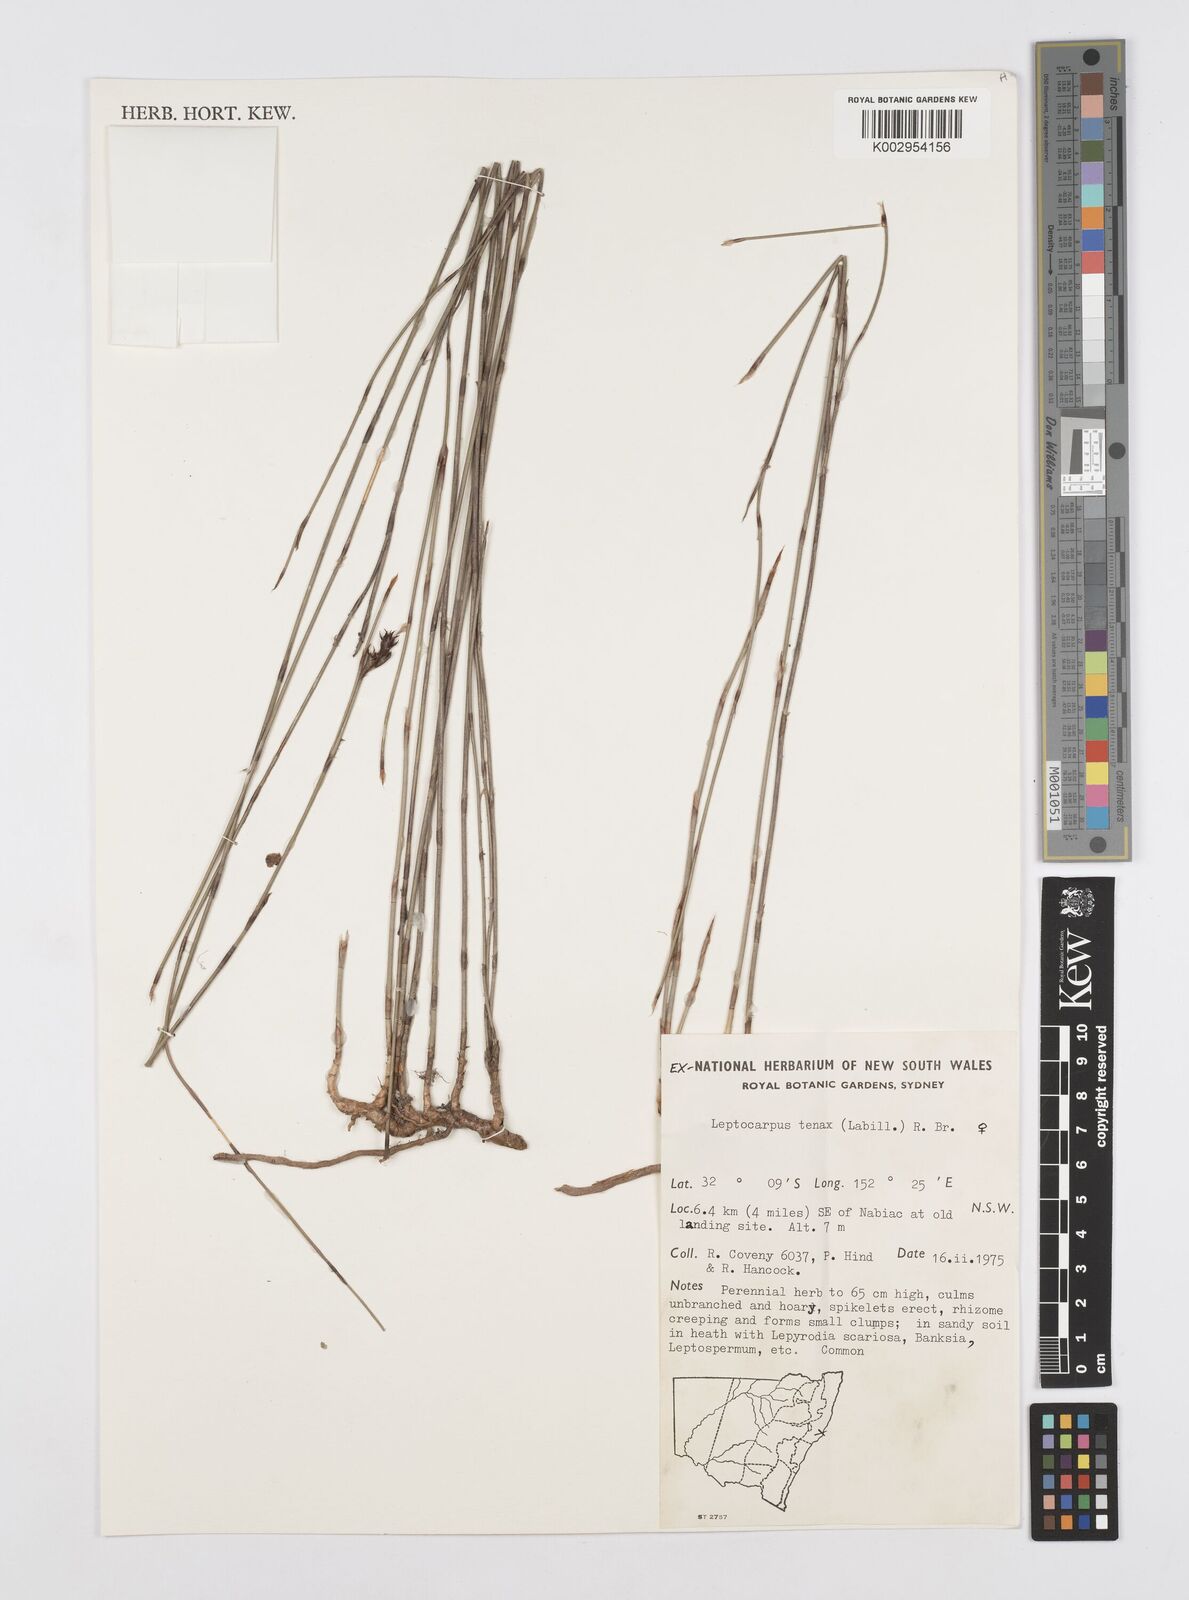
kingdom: Plantae
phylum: Tracheophyta
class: Liliopsida
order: Poales
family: Restionaceae
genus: Leptocarpus
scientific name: Leptocarpus tenax
